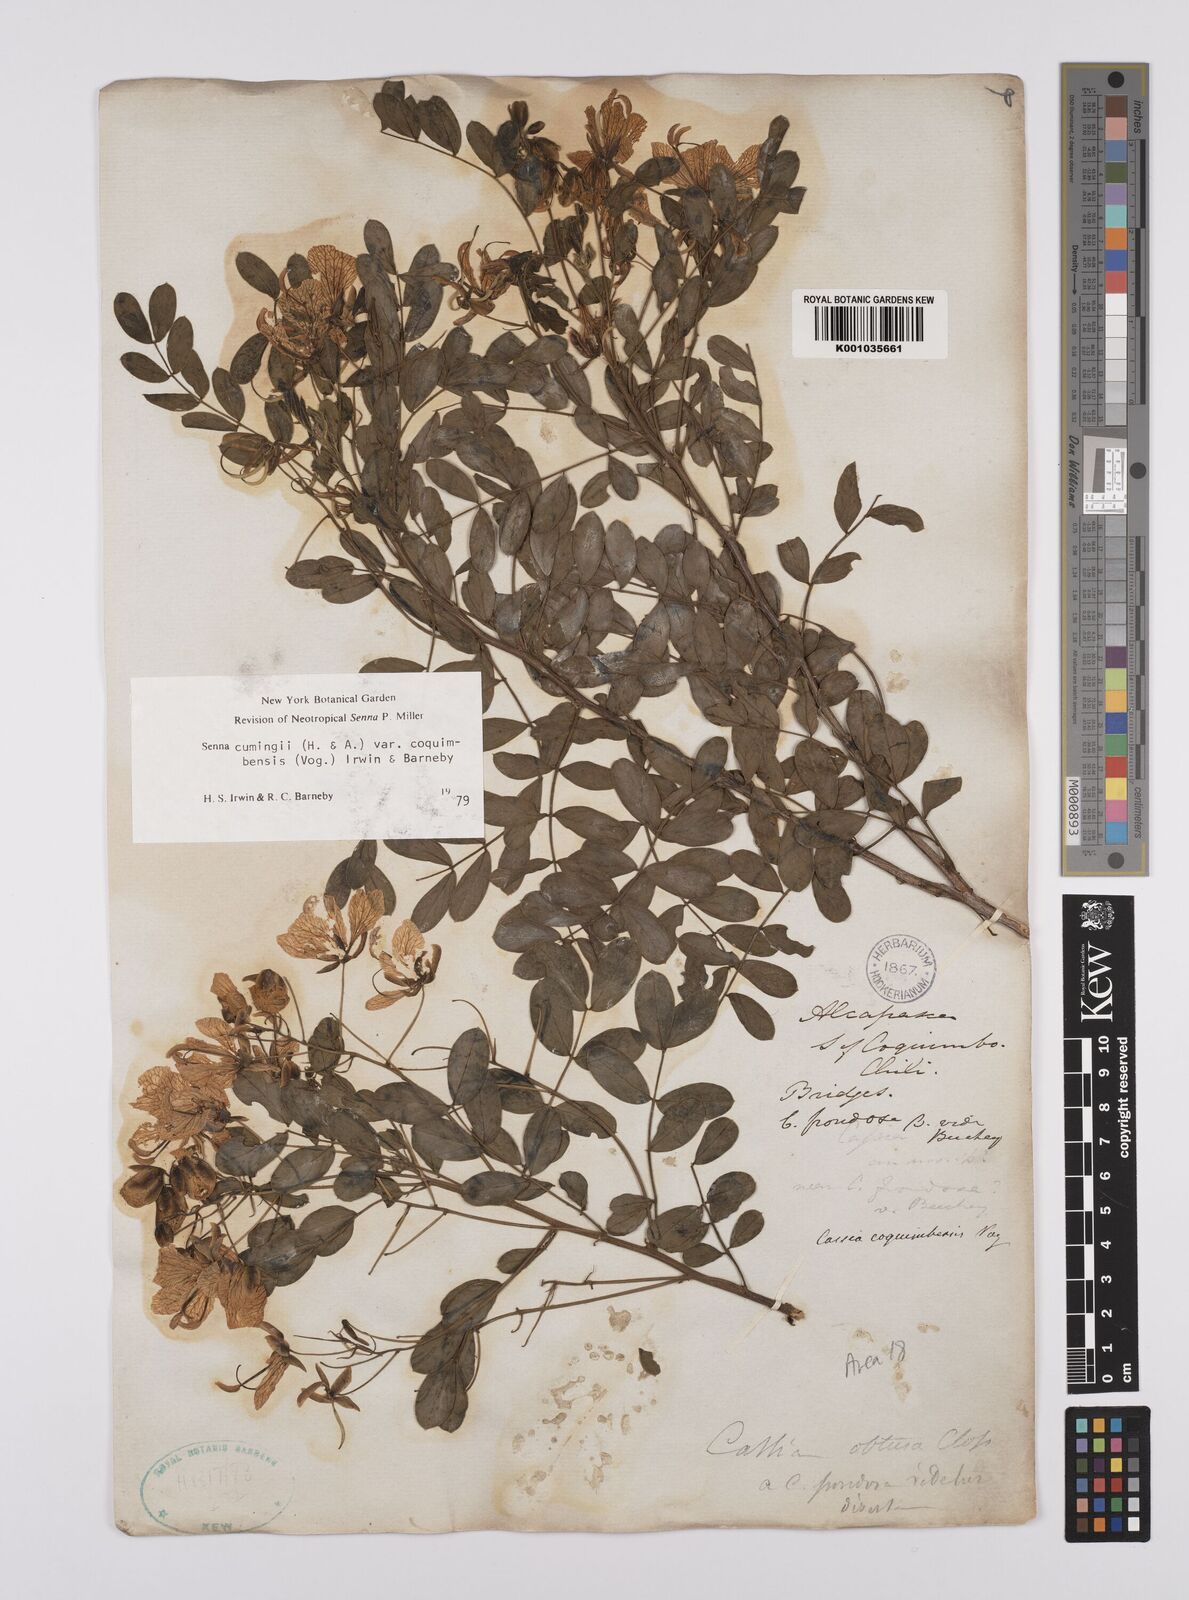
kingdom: Plantae
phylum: Tracheophyta
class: Magnoliopsida
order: Fabales
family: Fabaceae
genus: Senna
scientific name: Senna cumingii
